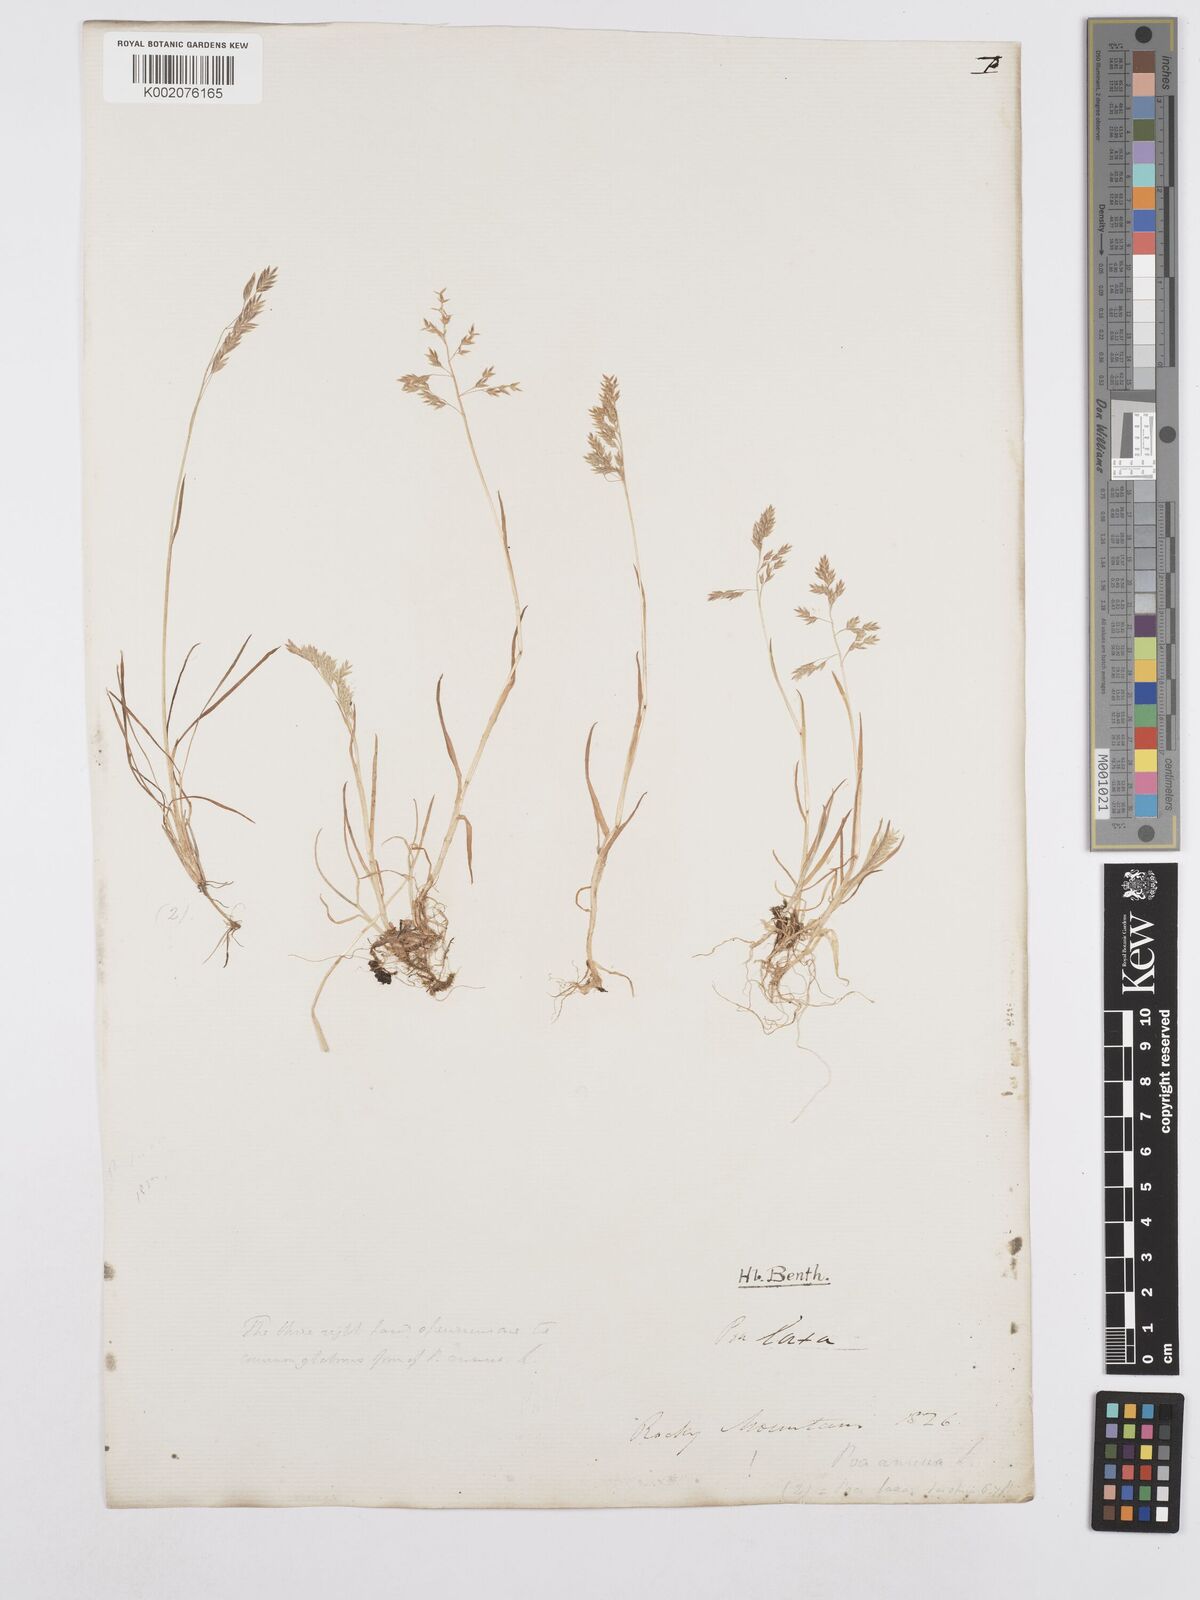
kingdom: Plantae
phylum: Tracheophyta
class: Liliopsida
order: Poales
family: Poaceae
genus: Poa
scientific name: Poa annua
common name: Annual bluegrass
